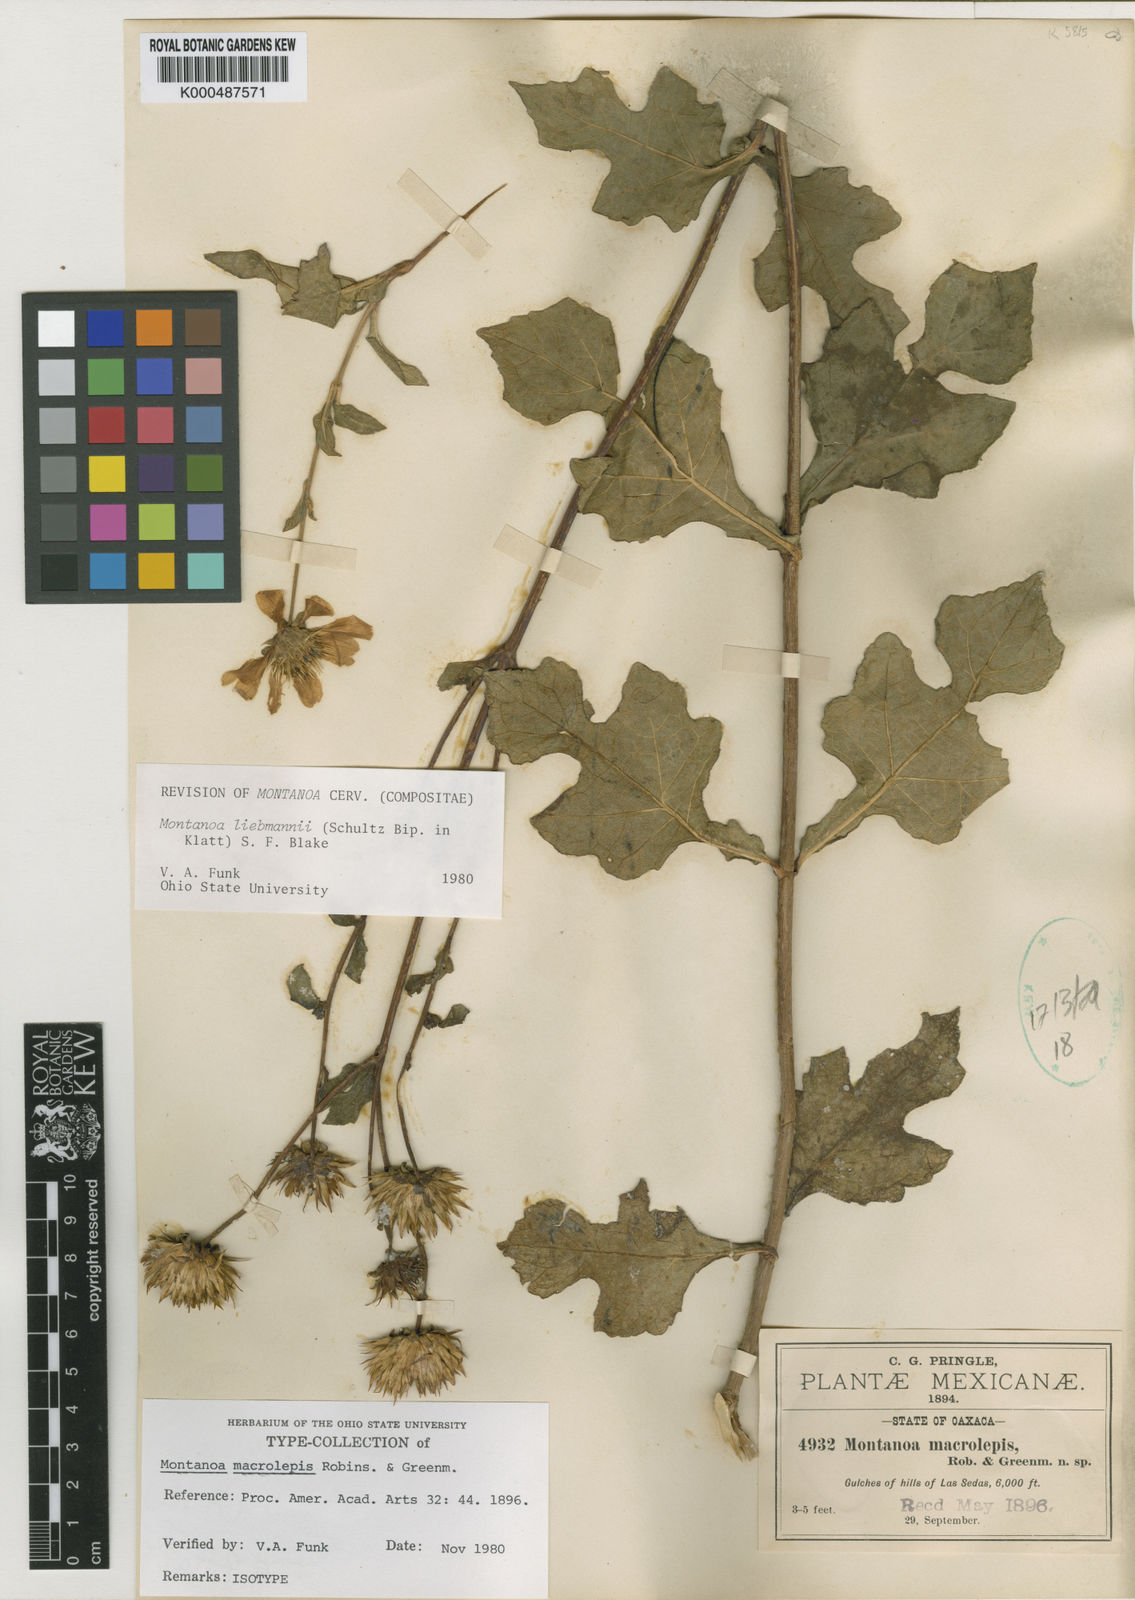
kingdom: Plantae
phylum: Tracheophyta
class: Magnoliopsida
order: Asterales
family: Asteraceae
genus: Montanoa
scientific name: Montanoa liebmannii
